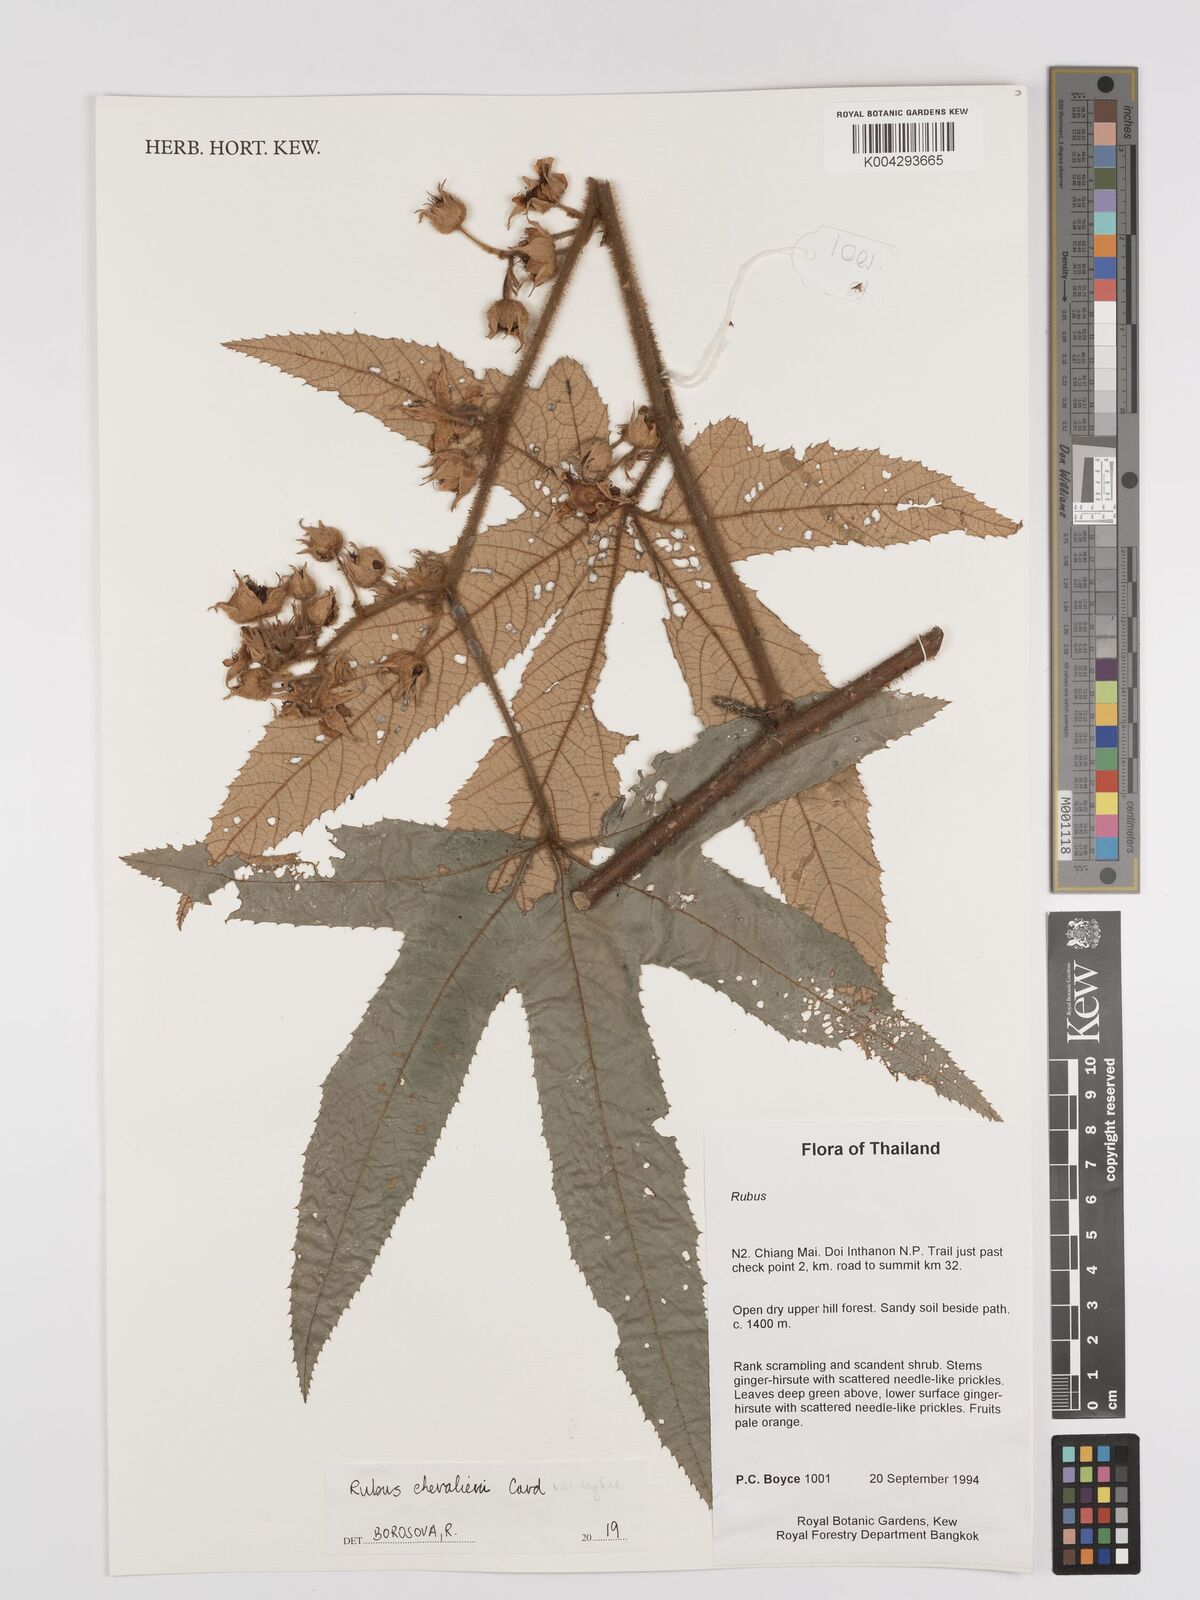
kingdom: Plantae
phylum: Tracheophyta
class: Magnoliopsida
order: Rosales
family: Rosaceae
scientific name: Rosaceae
